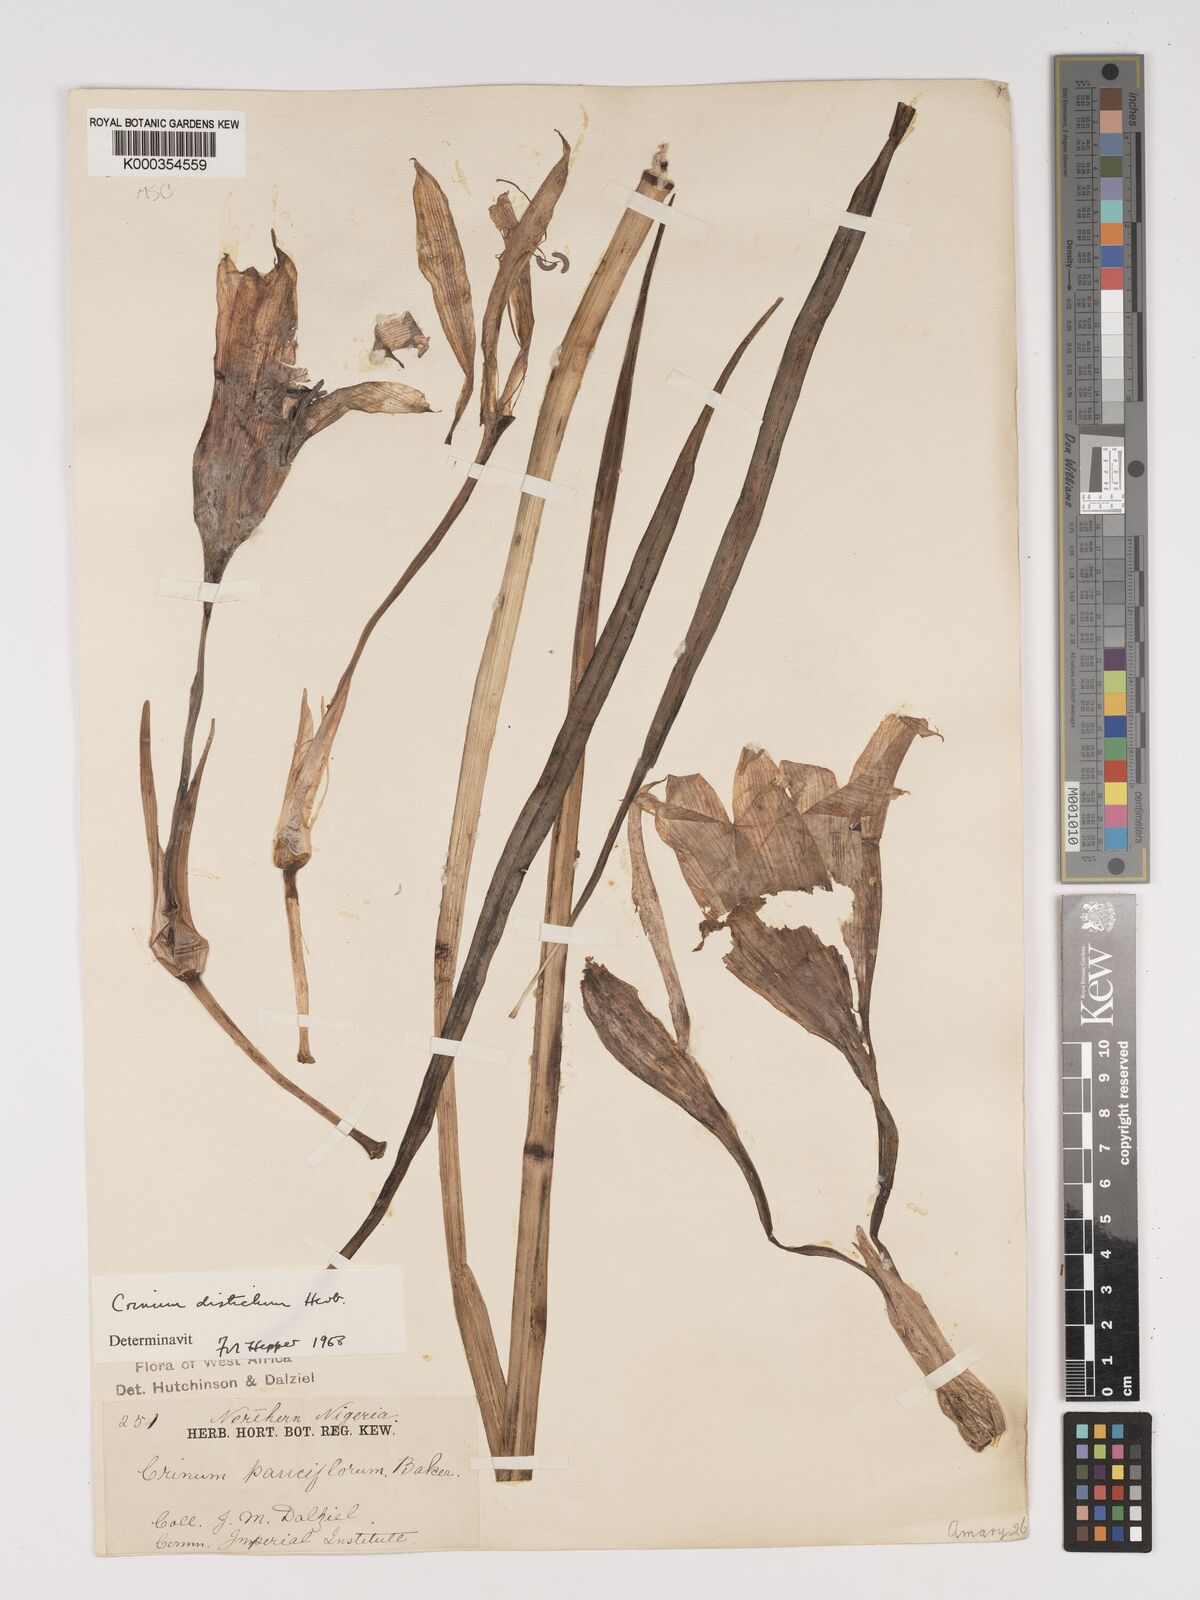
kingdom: Plantae
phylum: Tracheophyta
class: Liliopsida
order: Asparagales
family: Amaryllidaceae
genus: Crinum
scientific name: Crinum zeylanicum
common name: Ceylon swamplily
